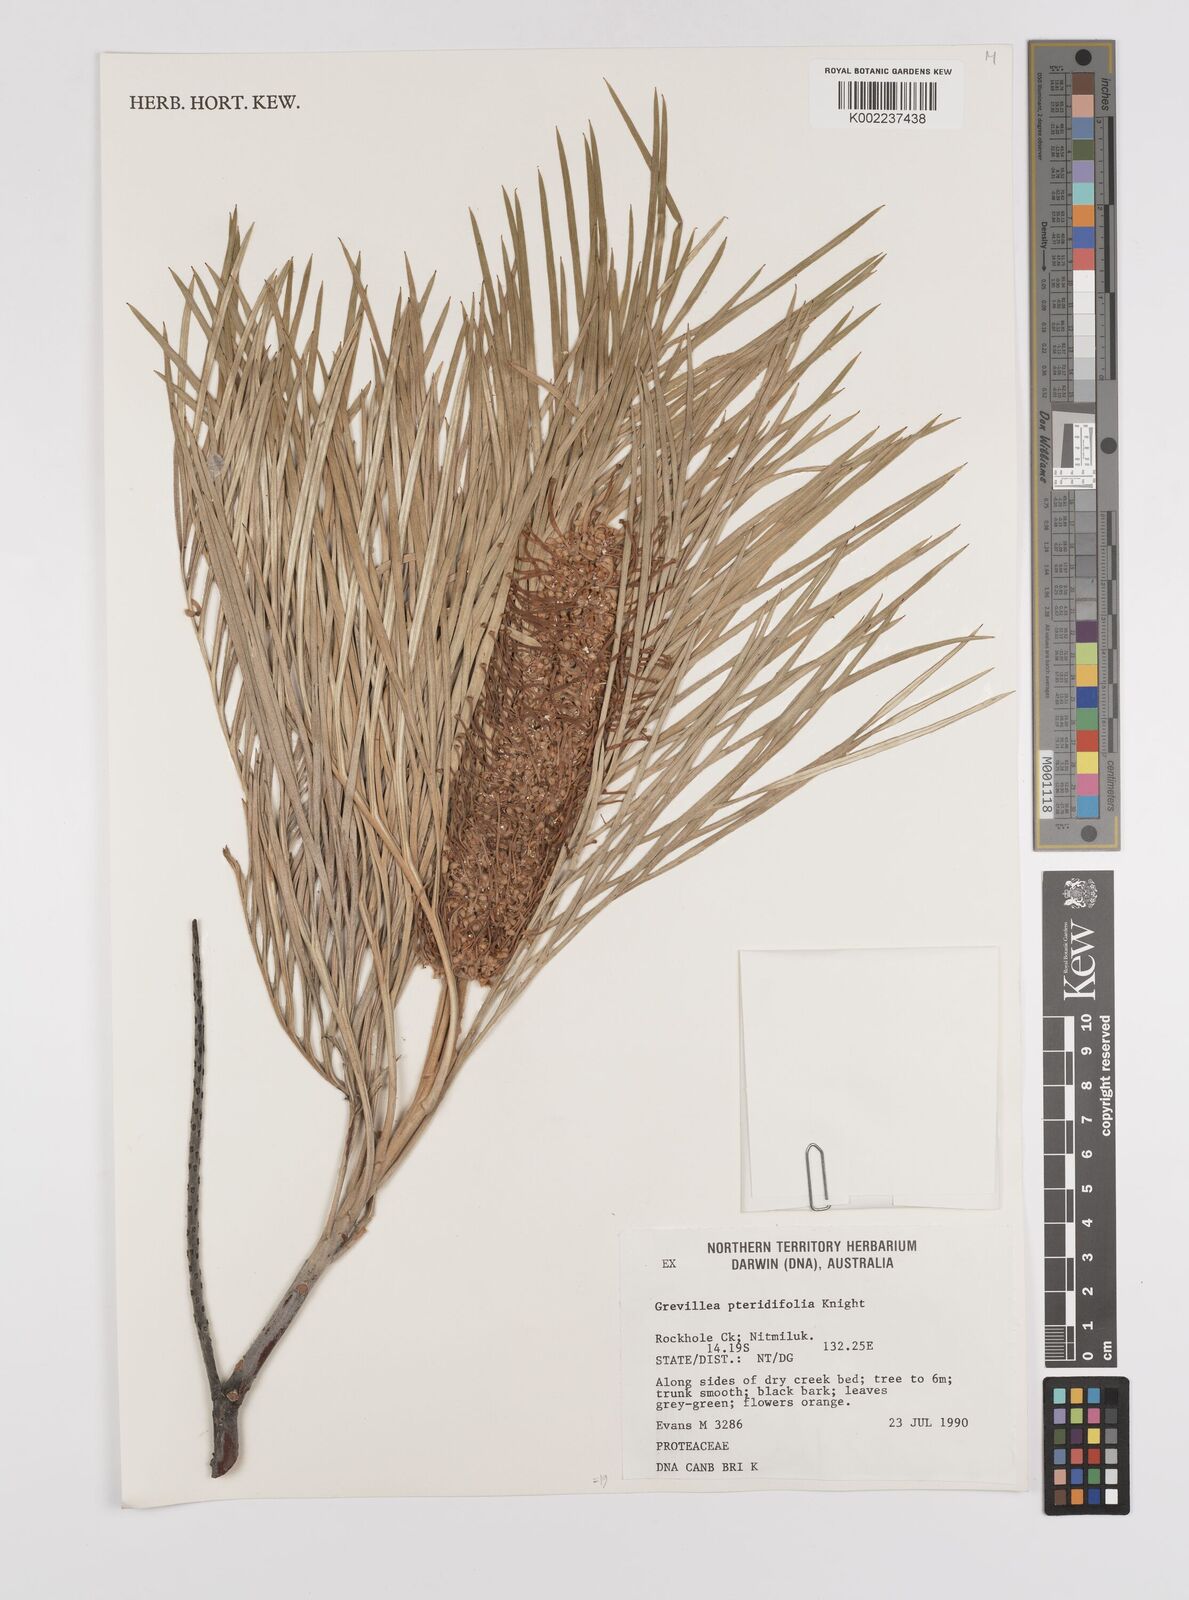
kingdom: Plantae
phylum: Tracheophyta
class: Magnoliopsida
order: Proteales
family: Proteaceae
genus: Grevillea
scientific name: Grevillea pteridifolia
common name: Golden grevillea
